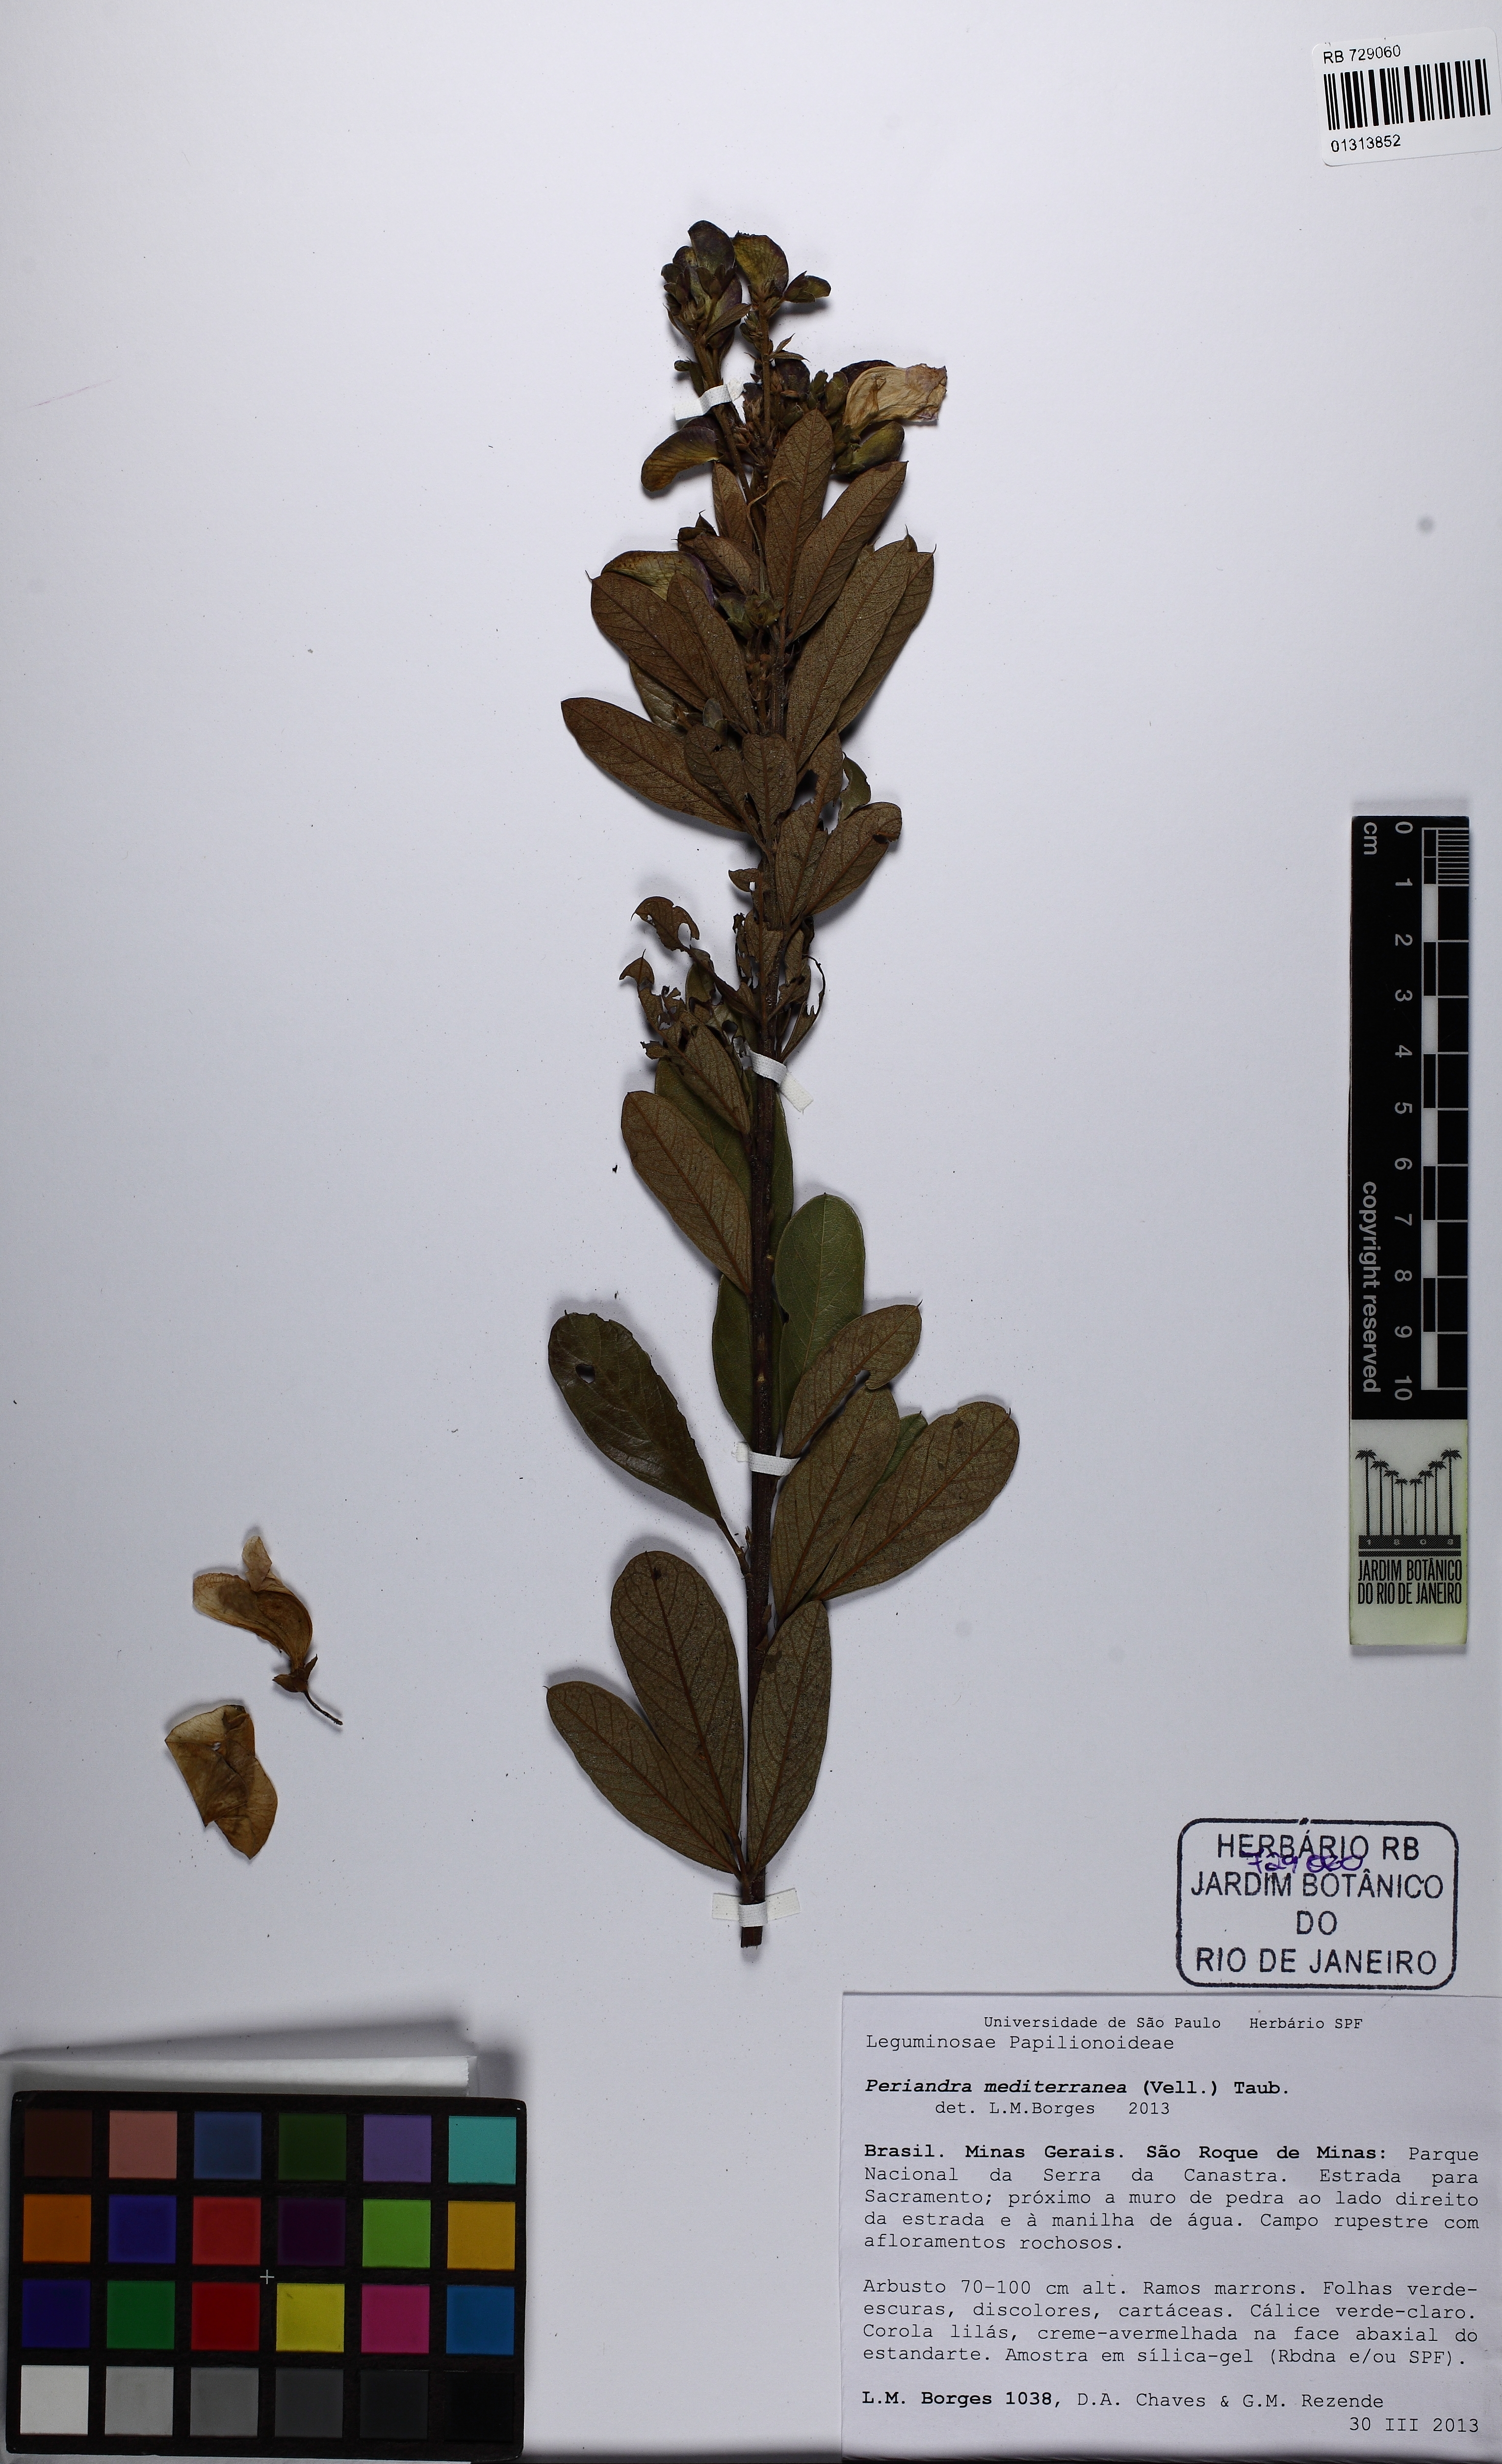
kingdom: Plantae
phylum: Tracheophyta
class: Magnoliopsida
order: Fabales
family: Fabaceae
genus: Periandra
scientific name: Periandra mediterranea
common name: Brazilian licorice
